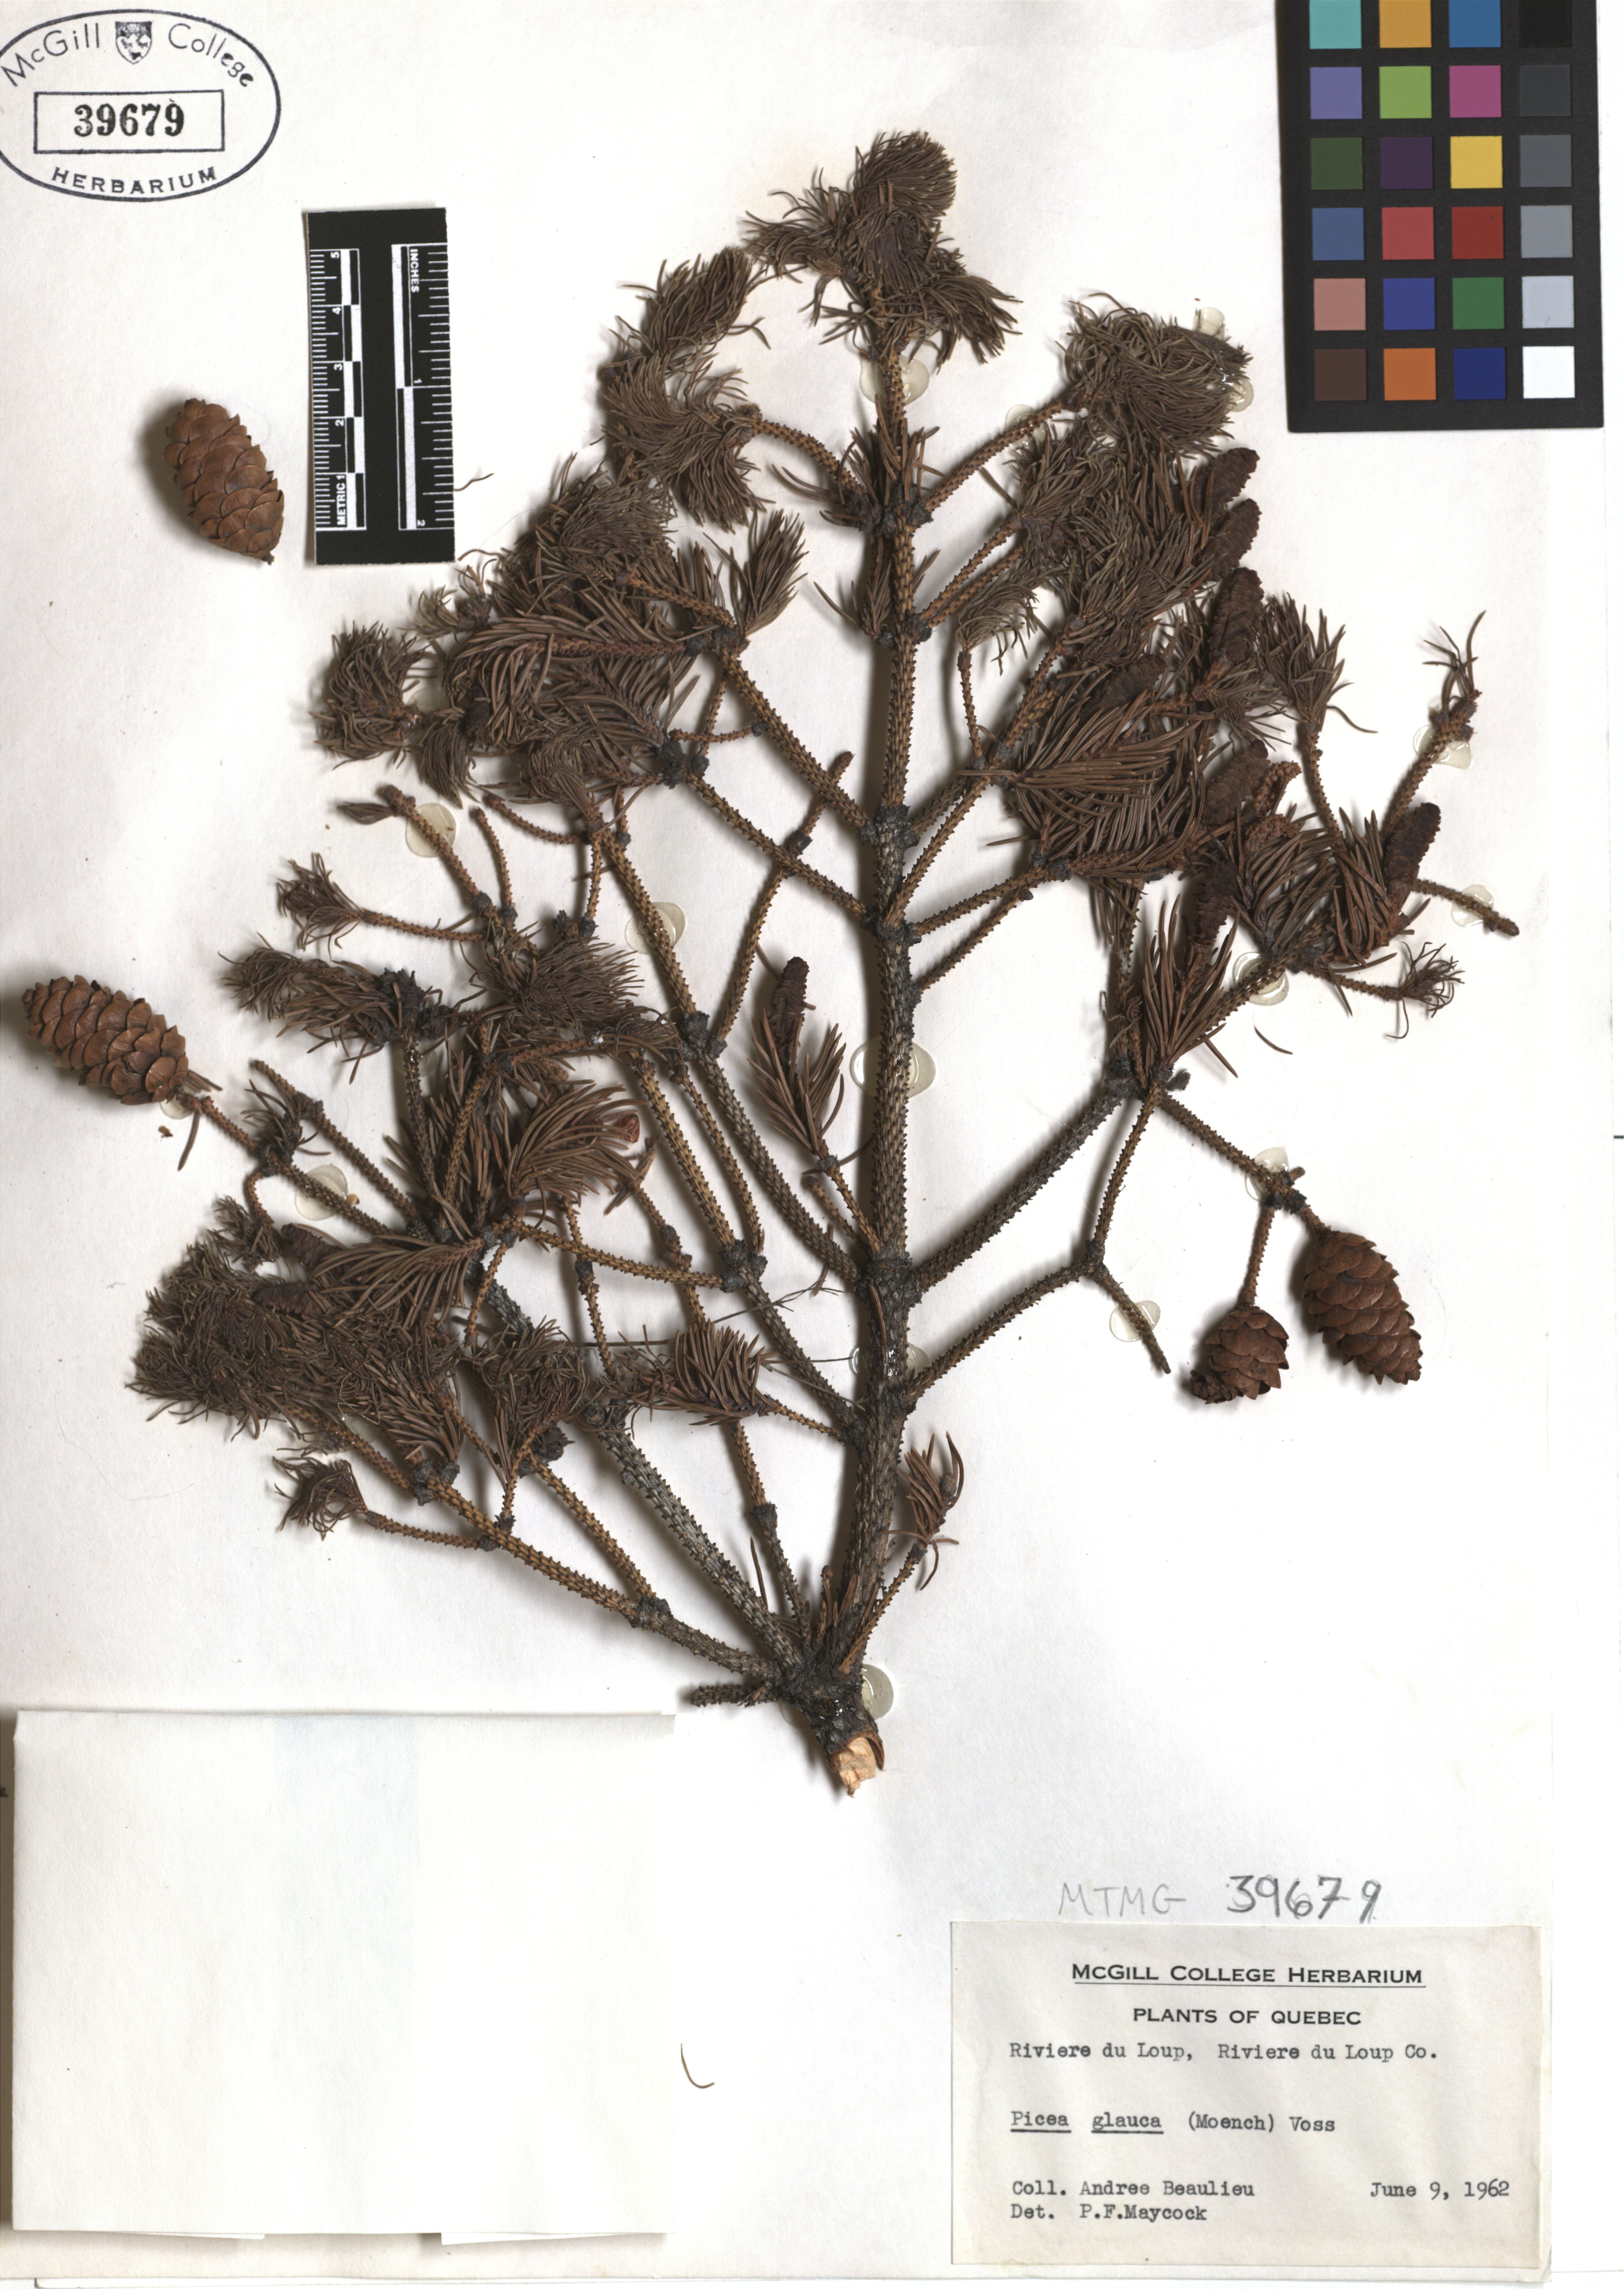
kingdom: Plantae
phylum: Tracheophyta
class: Pinopsida
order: Pinales
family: Pinaceae
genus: Picea
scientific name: Picea glauca
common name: White spruce
